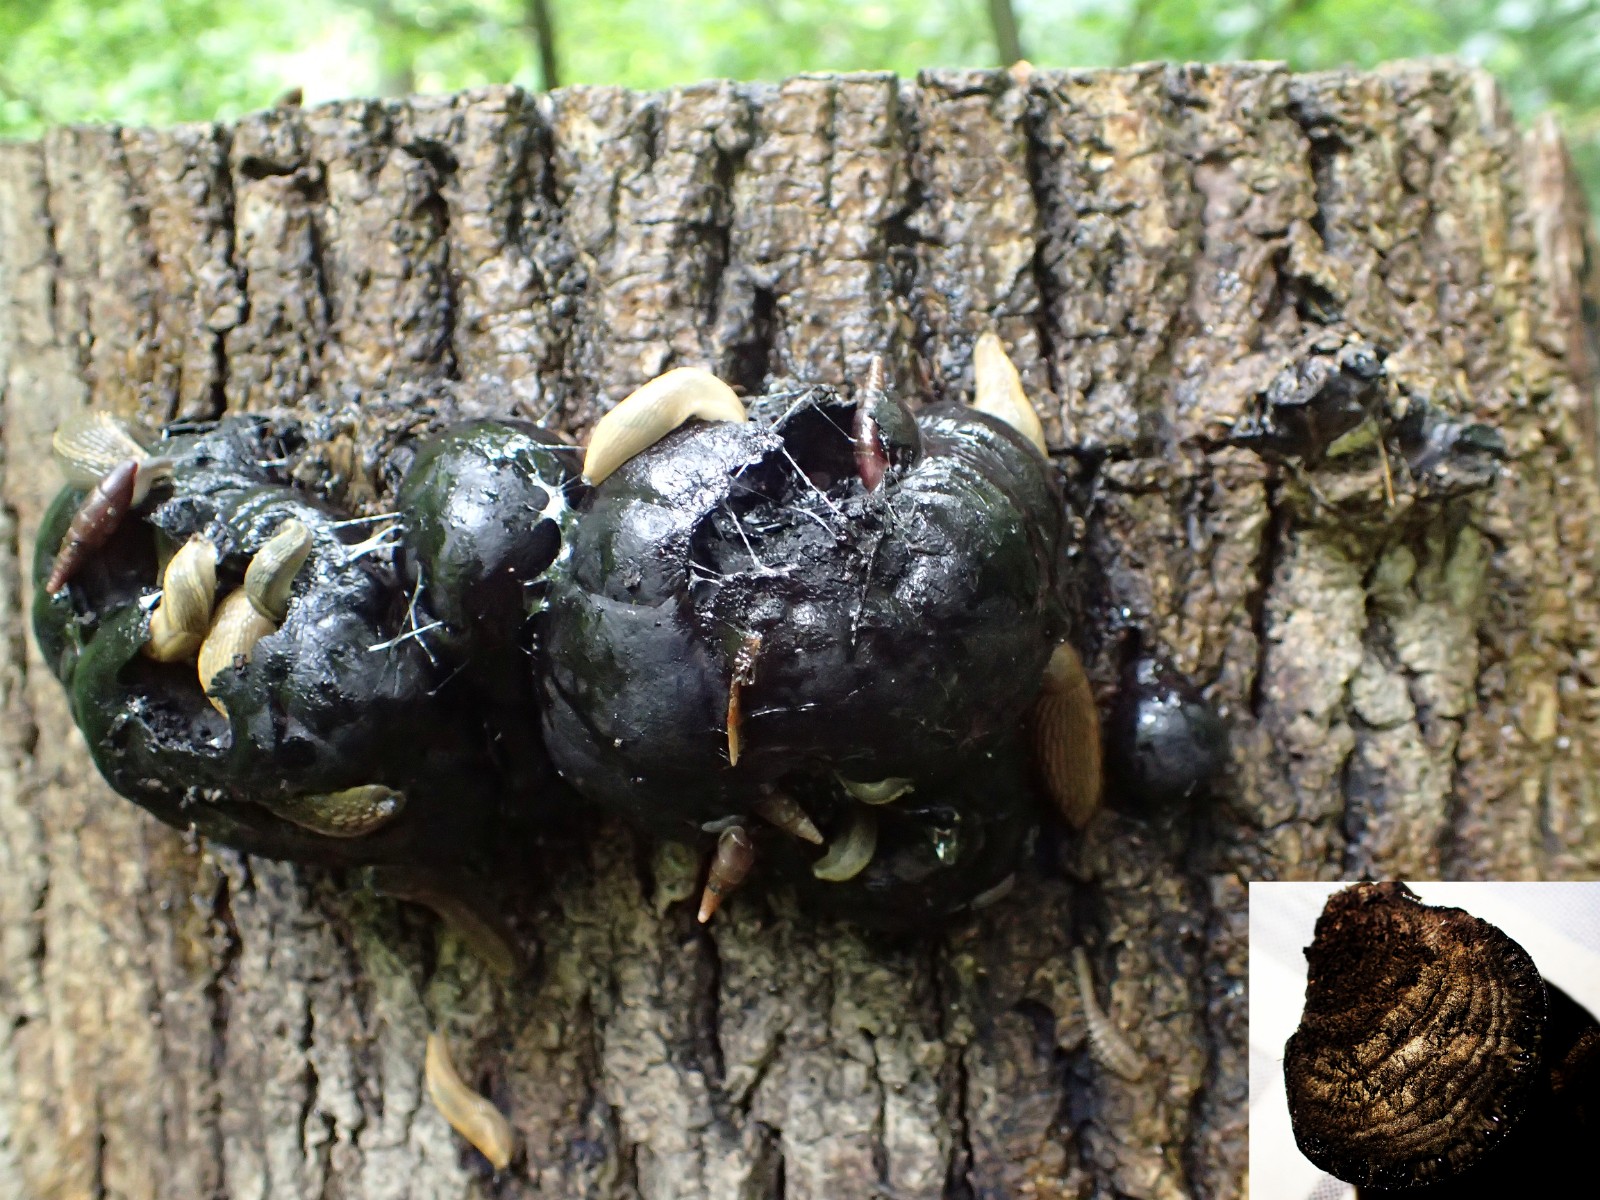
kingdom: Fungi
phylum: Ascomycota
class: Sordariomycetes
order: Xylariales
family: Hypoxylaceae
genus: Daldinia
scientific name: Daldinia concentrica
